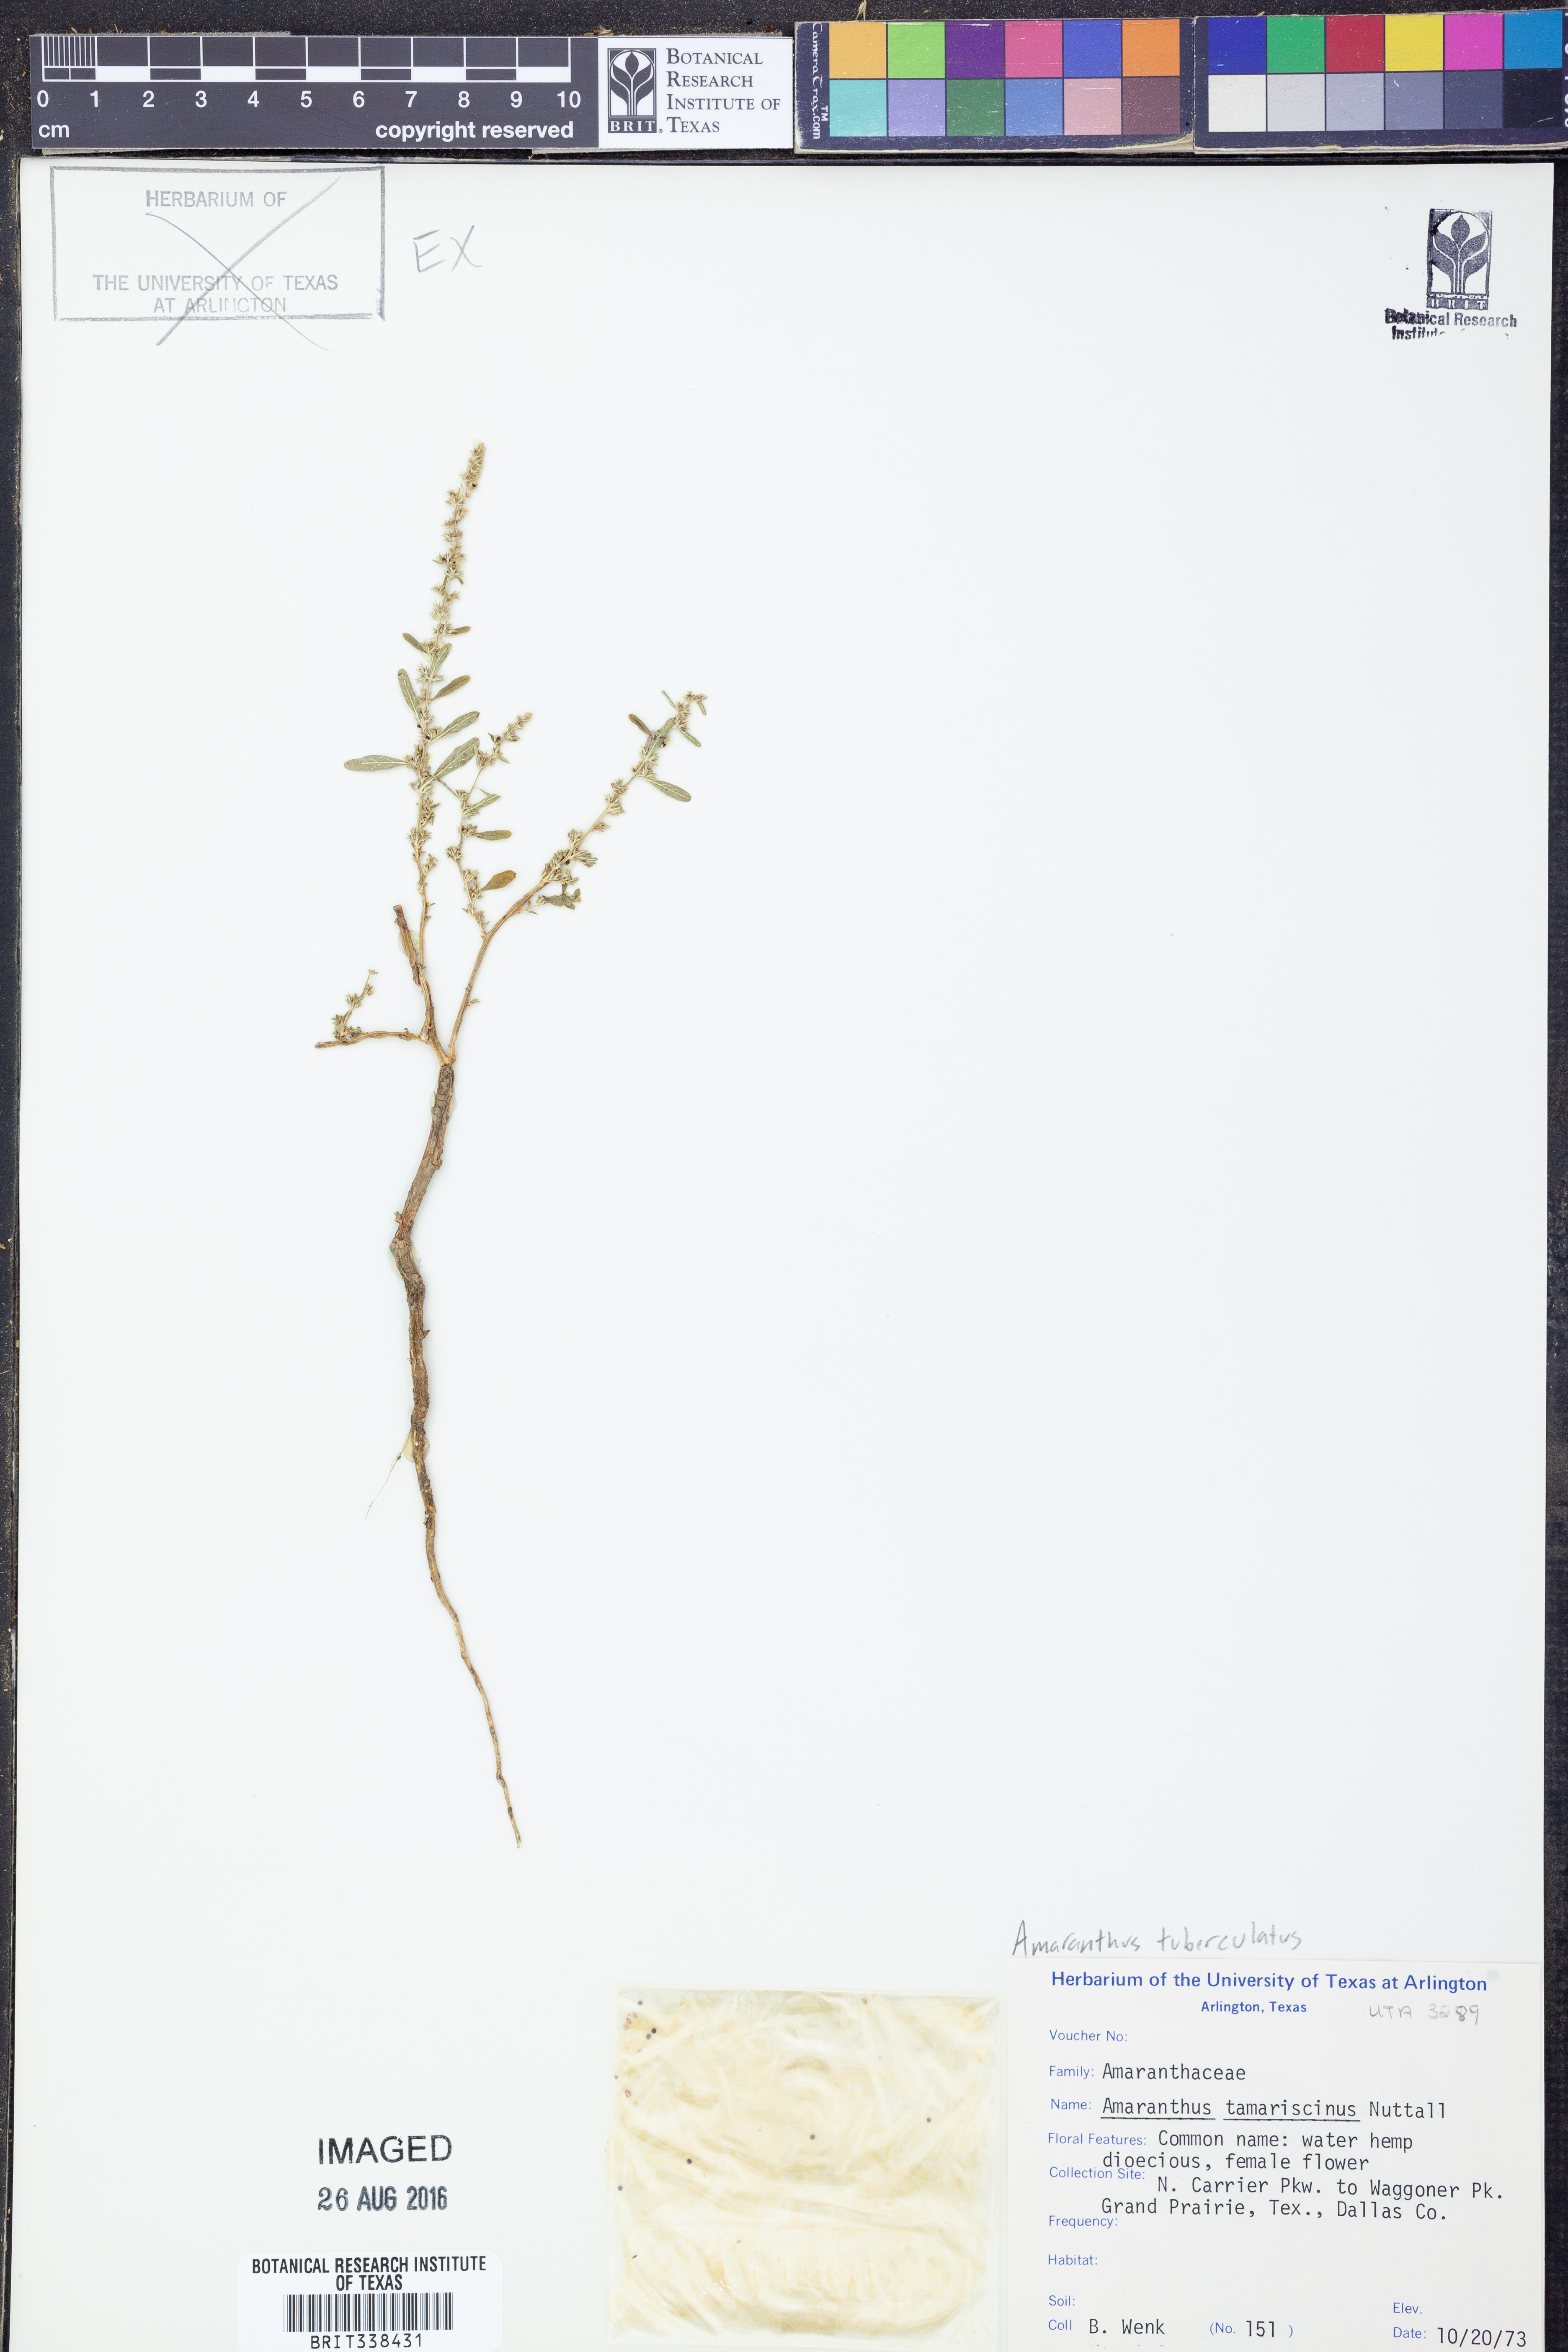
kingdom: Plantae
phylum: Tracheophyta
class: Magnoliopsida
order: Caryophyllales
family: Amaranthaceae
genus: Amaranthus
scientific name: Amaranthus tuberculatus
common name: Rough-fruit amaranth
